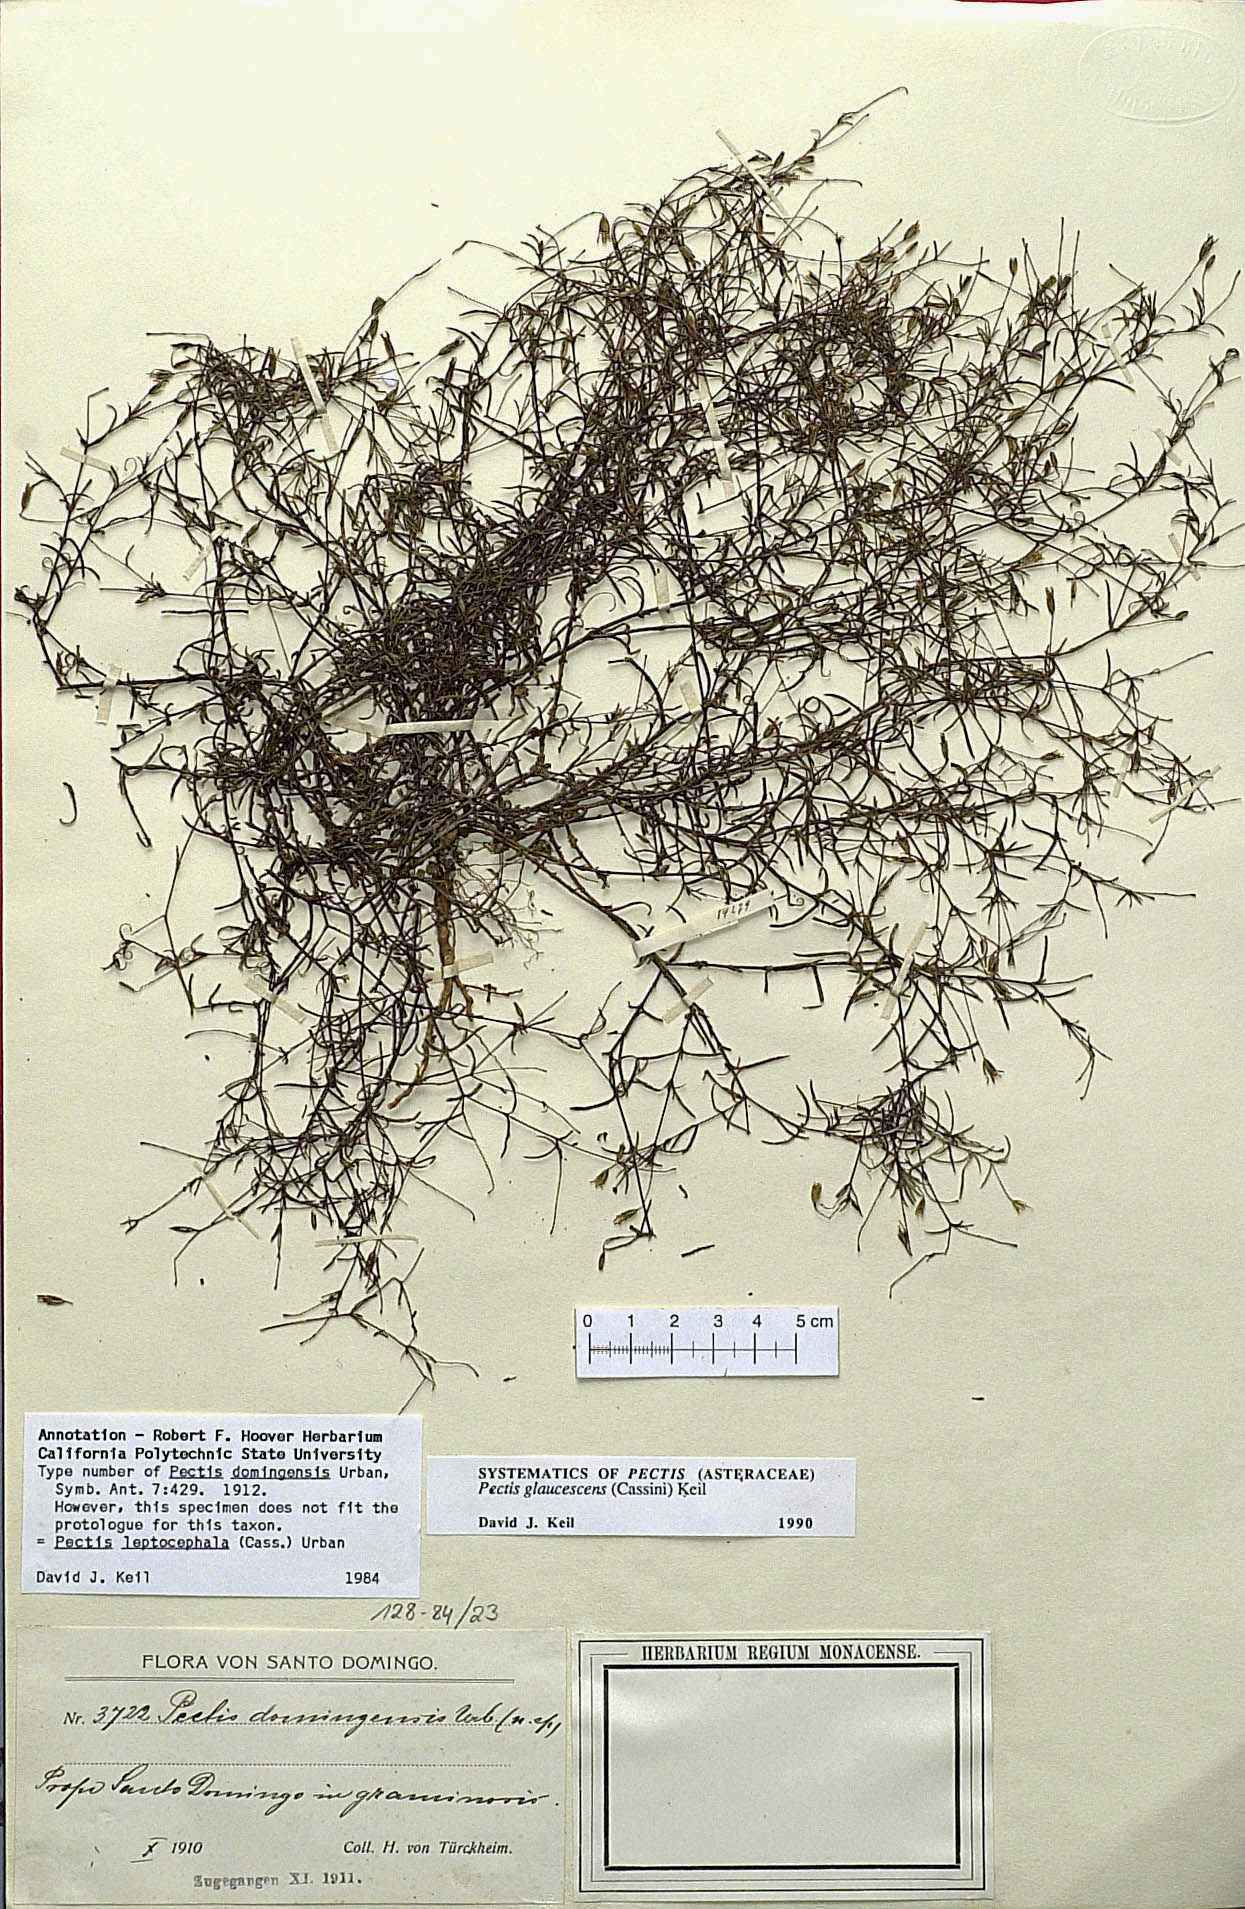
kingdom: Plantae
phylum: Tracheophyta
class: Magnoliopsida
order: Asterales
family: Asteraceae
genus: Pectis
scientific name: Pectis glaucescens
